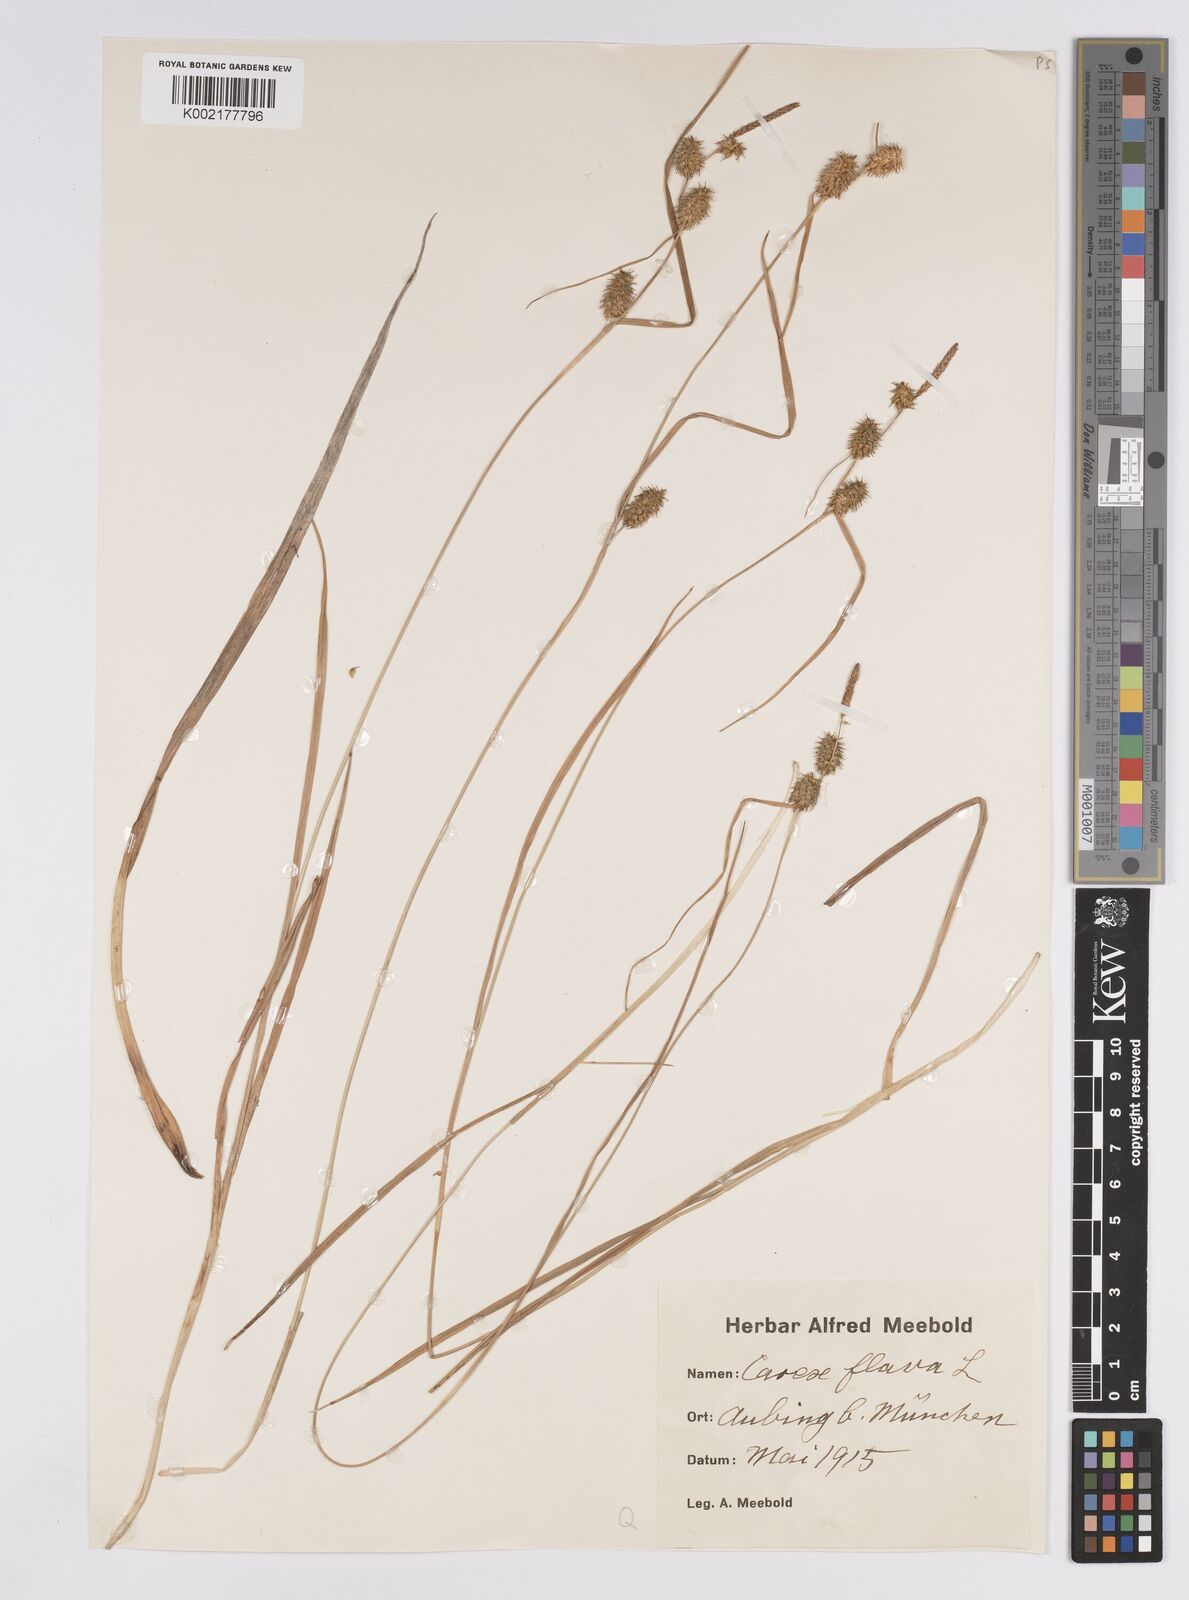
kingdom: Plantae
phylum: Tracheophyta
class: Liliopsida
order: Poales
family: Cyperaceae
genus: Carex
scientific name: Carex flava
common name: Large yellow-sedge
